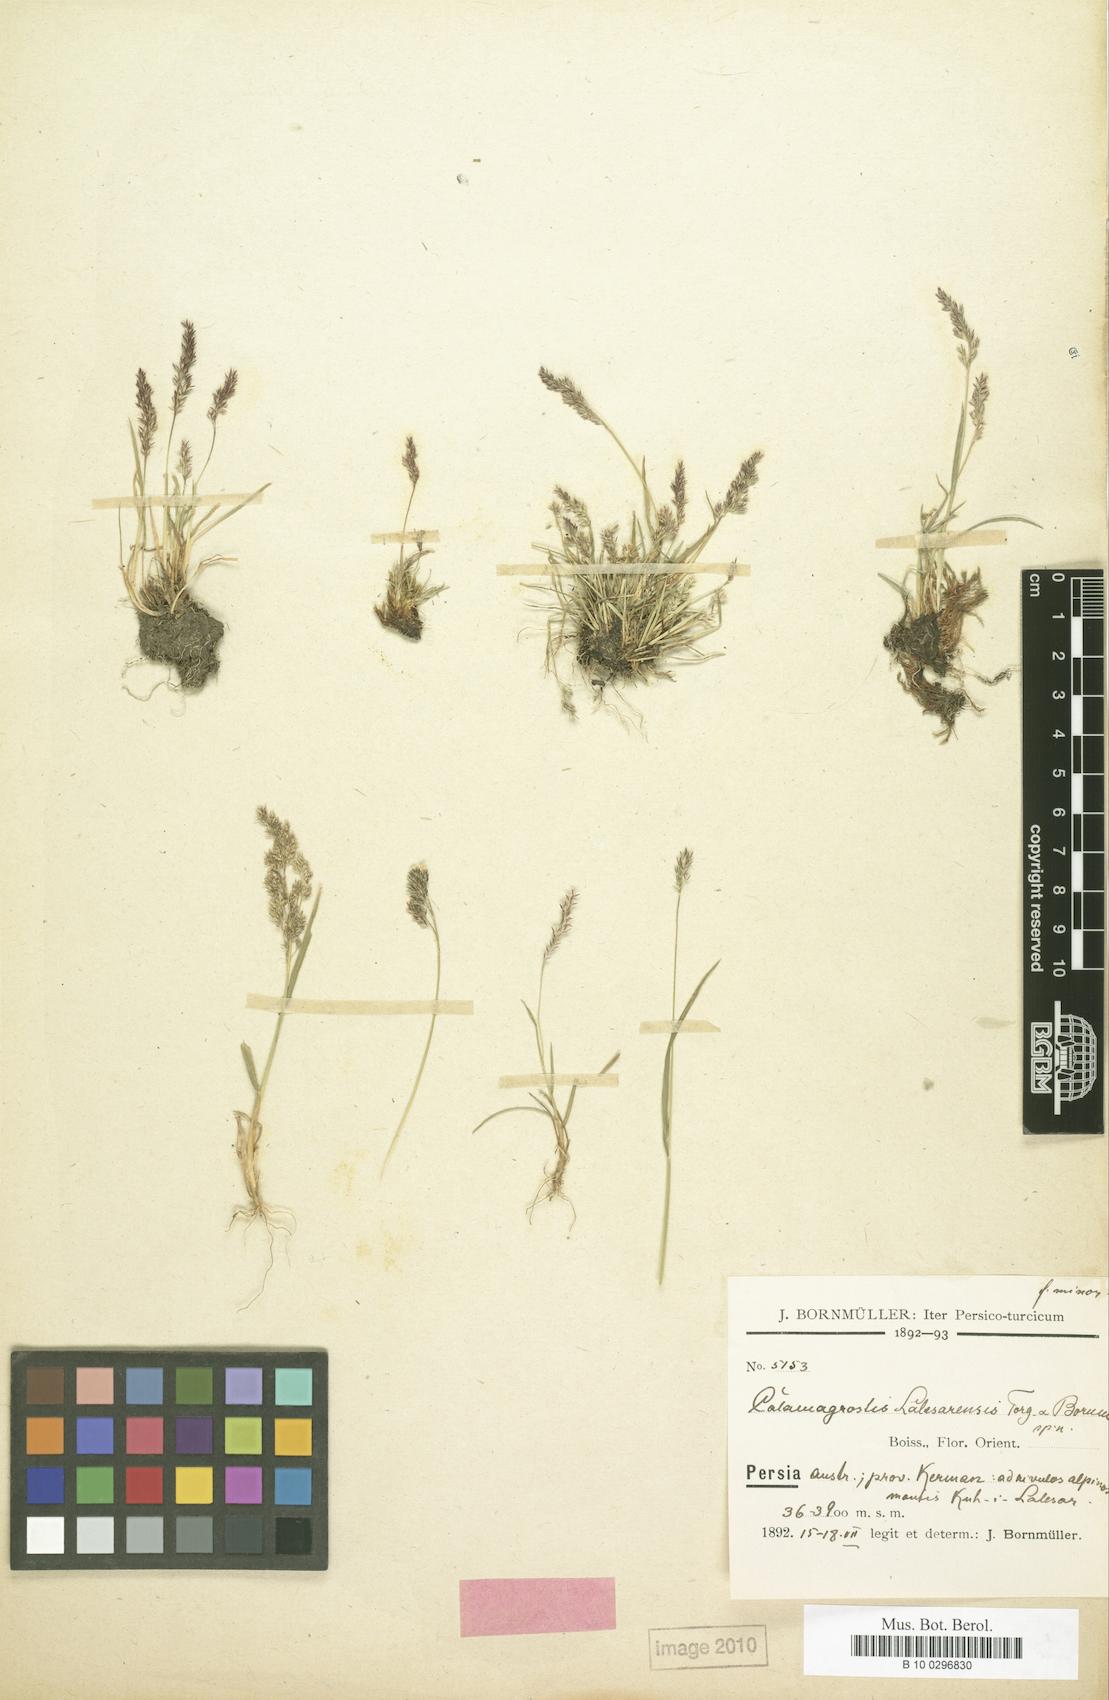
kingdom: Plantae
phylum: Tracheophyta
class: Liliopsida
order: Poales
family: Poaceae
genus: Agrostis
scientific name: Agrostis olympica
